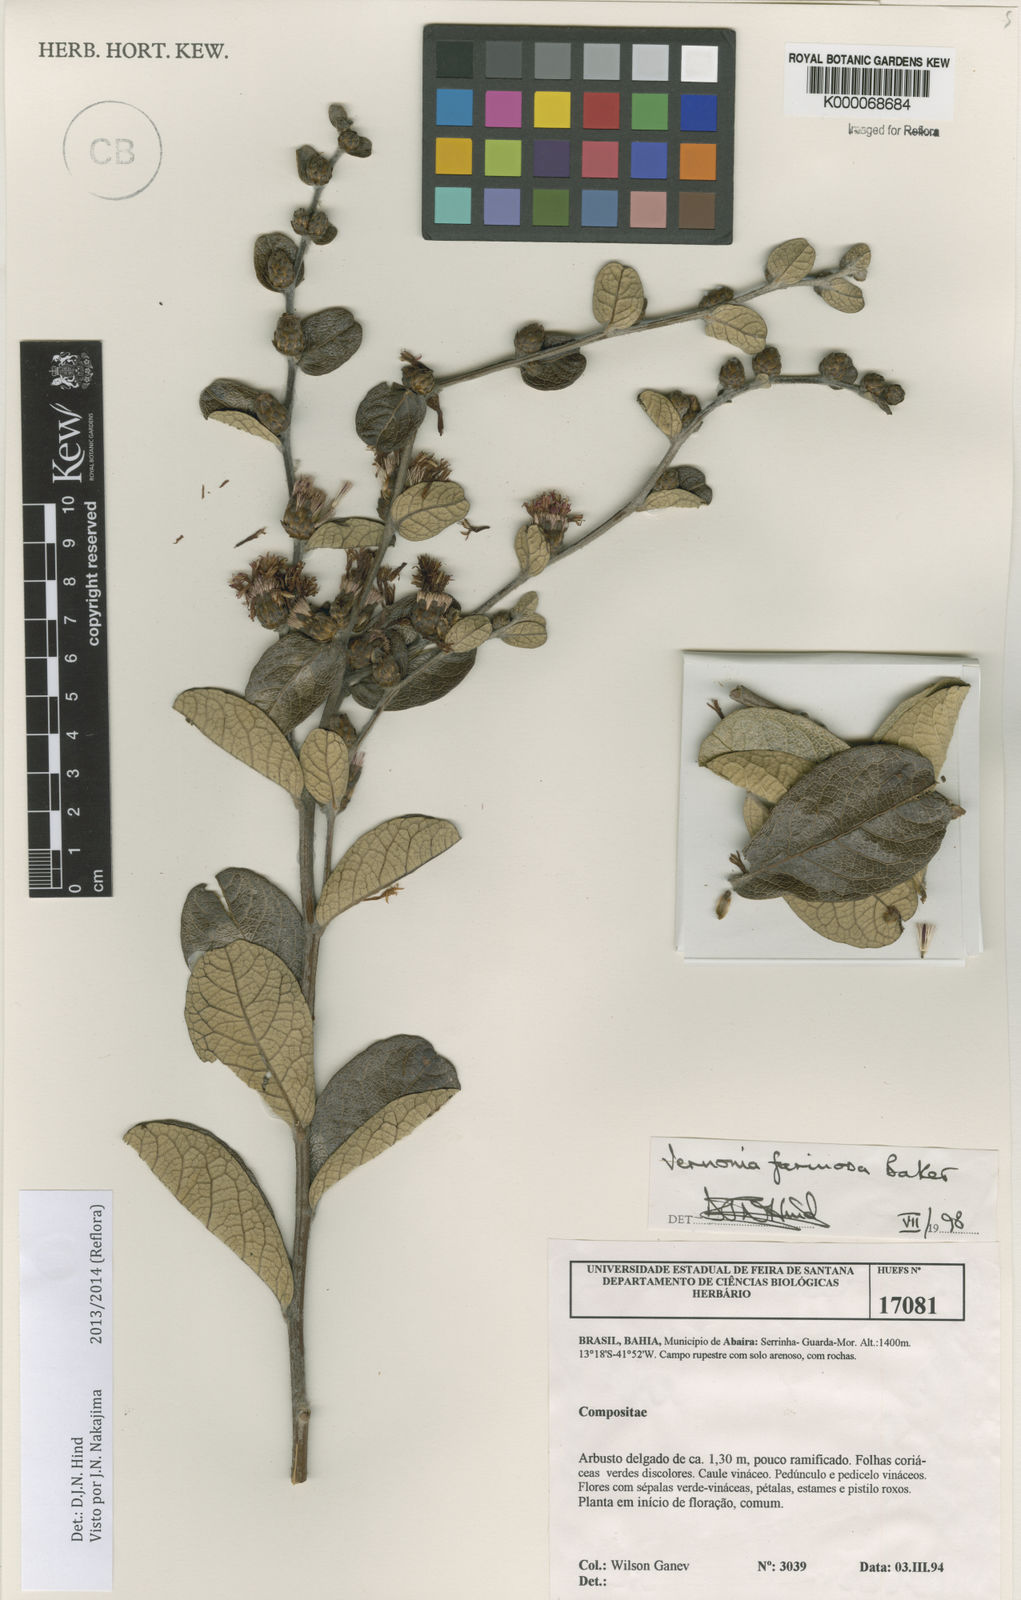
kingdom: Plantae
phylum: Tracheophyta
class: Magnoliopsida
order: Asterales
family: Asteraceae
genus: Lessingianthus
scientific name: Lessingianthus farinosus
